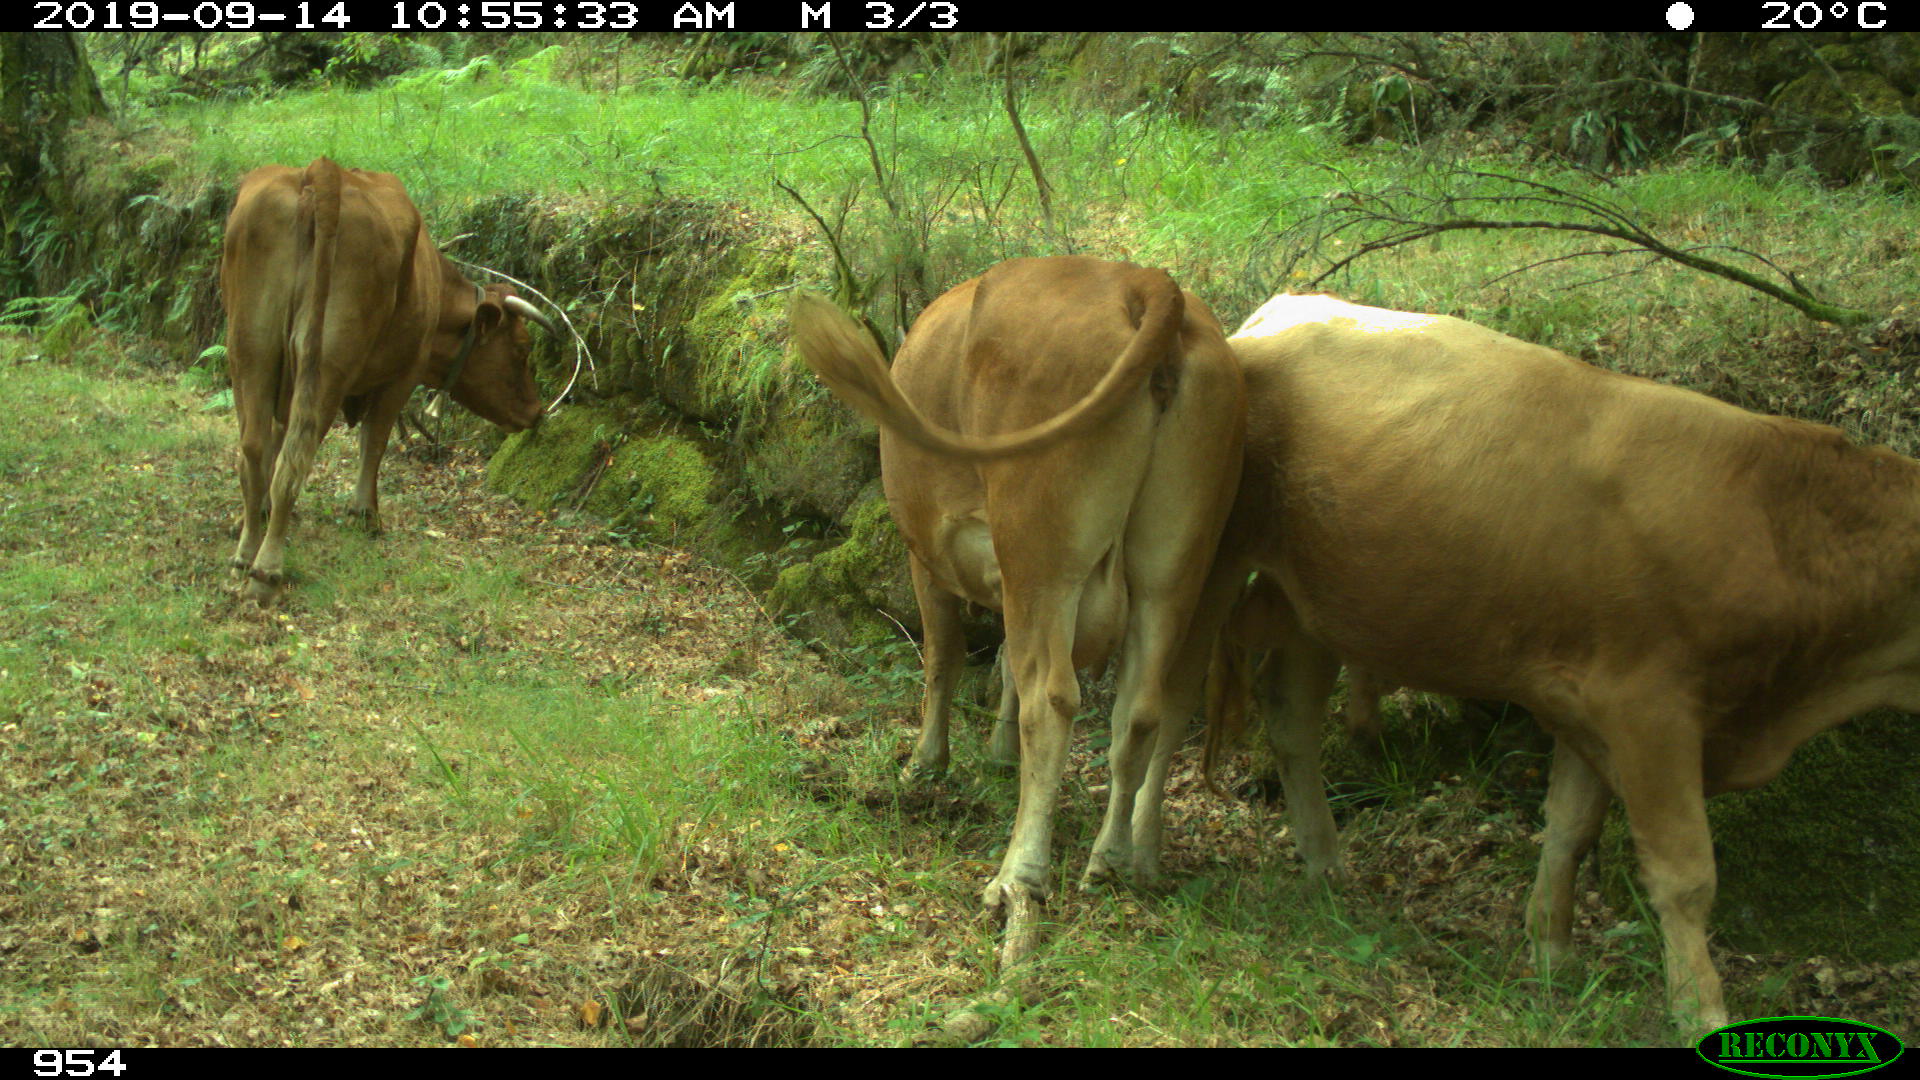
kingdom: Animalia
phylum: Chordata
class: Mammalia
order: Artiodactyla
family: Bovidae
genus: Bos
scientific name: Bos taurus
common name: Domesticated cattle
